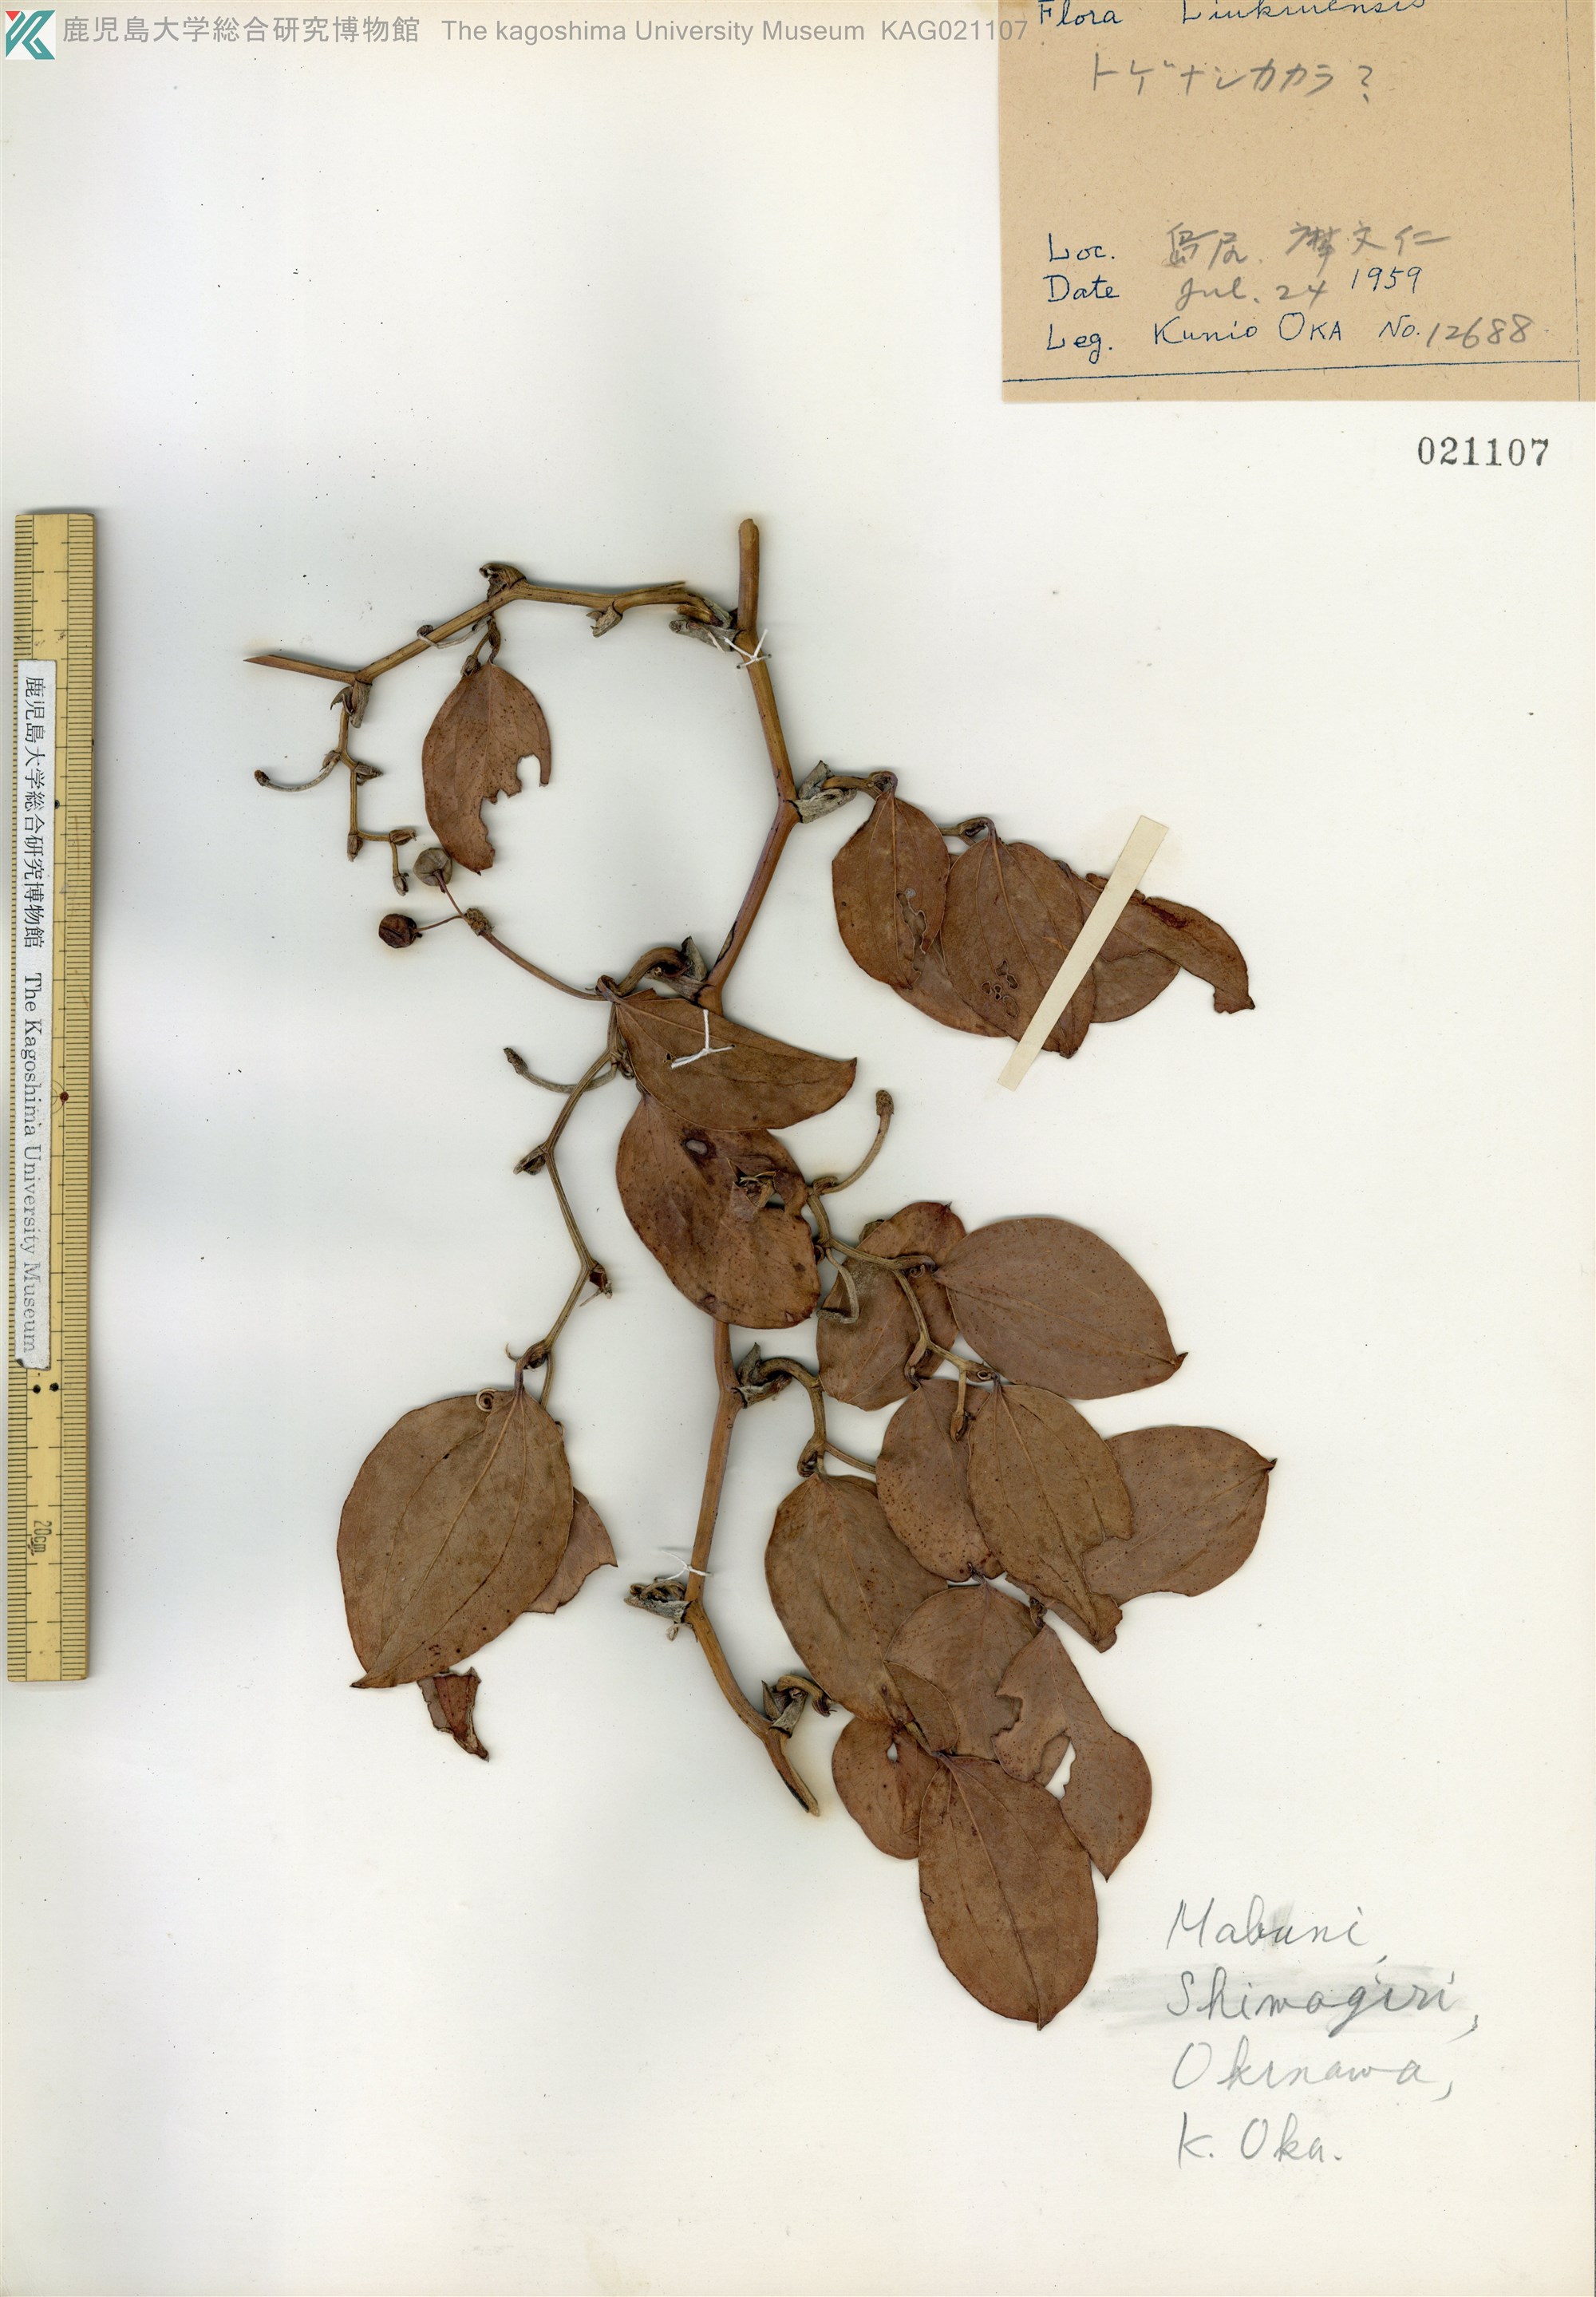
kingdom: Plantae
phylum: Tracheophyta
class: Liliopsida
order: Liliales
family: Smilacaceae
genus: Smilax
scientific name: Smilax china
